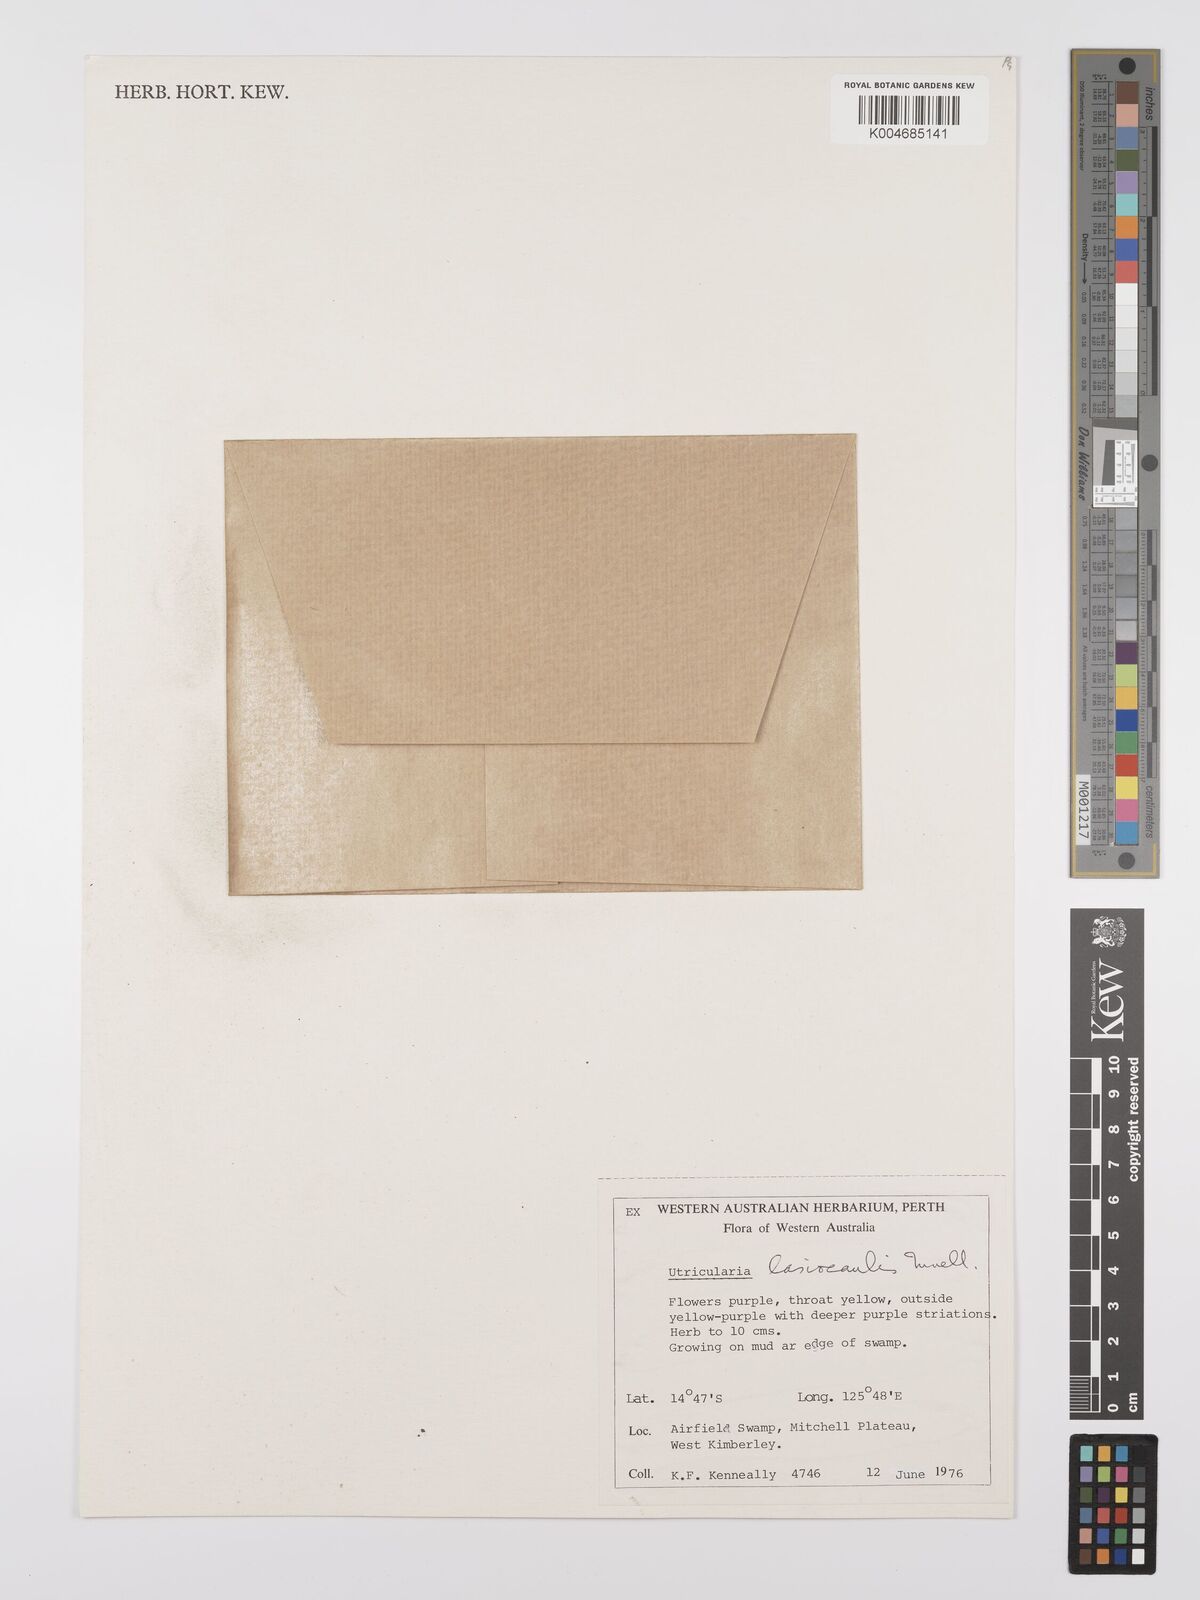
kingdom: Plantae
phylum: Tracheophyta
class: Magnoliopsida
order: Lamiales
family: Lentibulariaceae
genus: Utricularia
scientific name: Utricularia lasiocaulis
